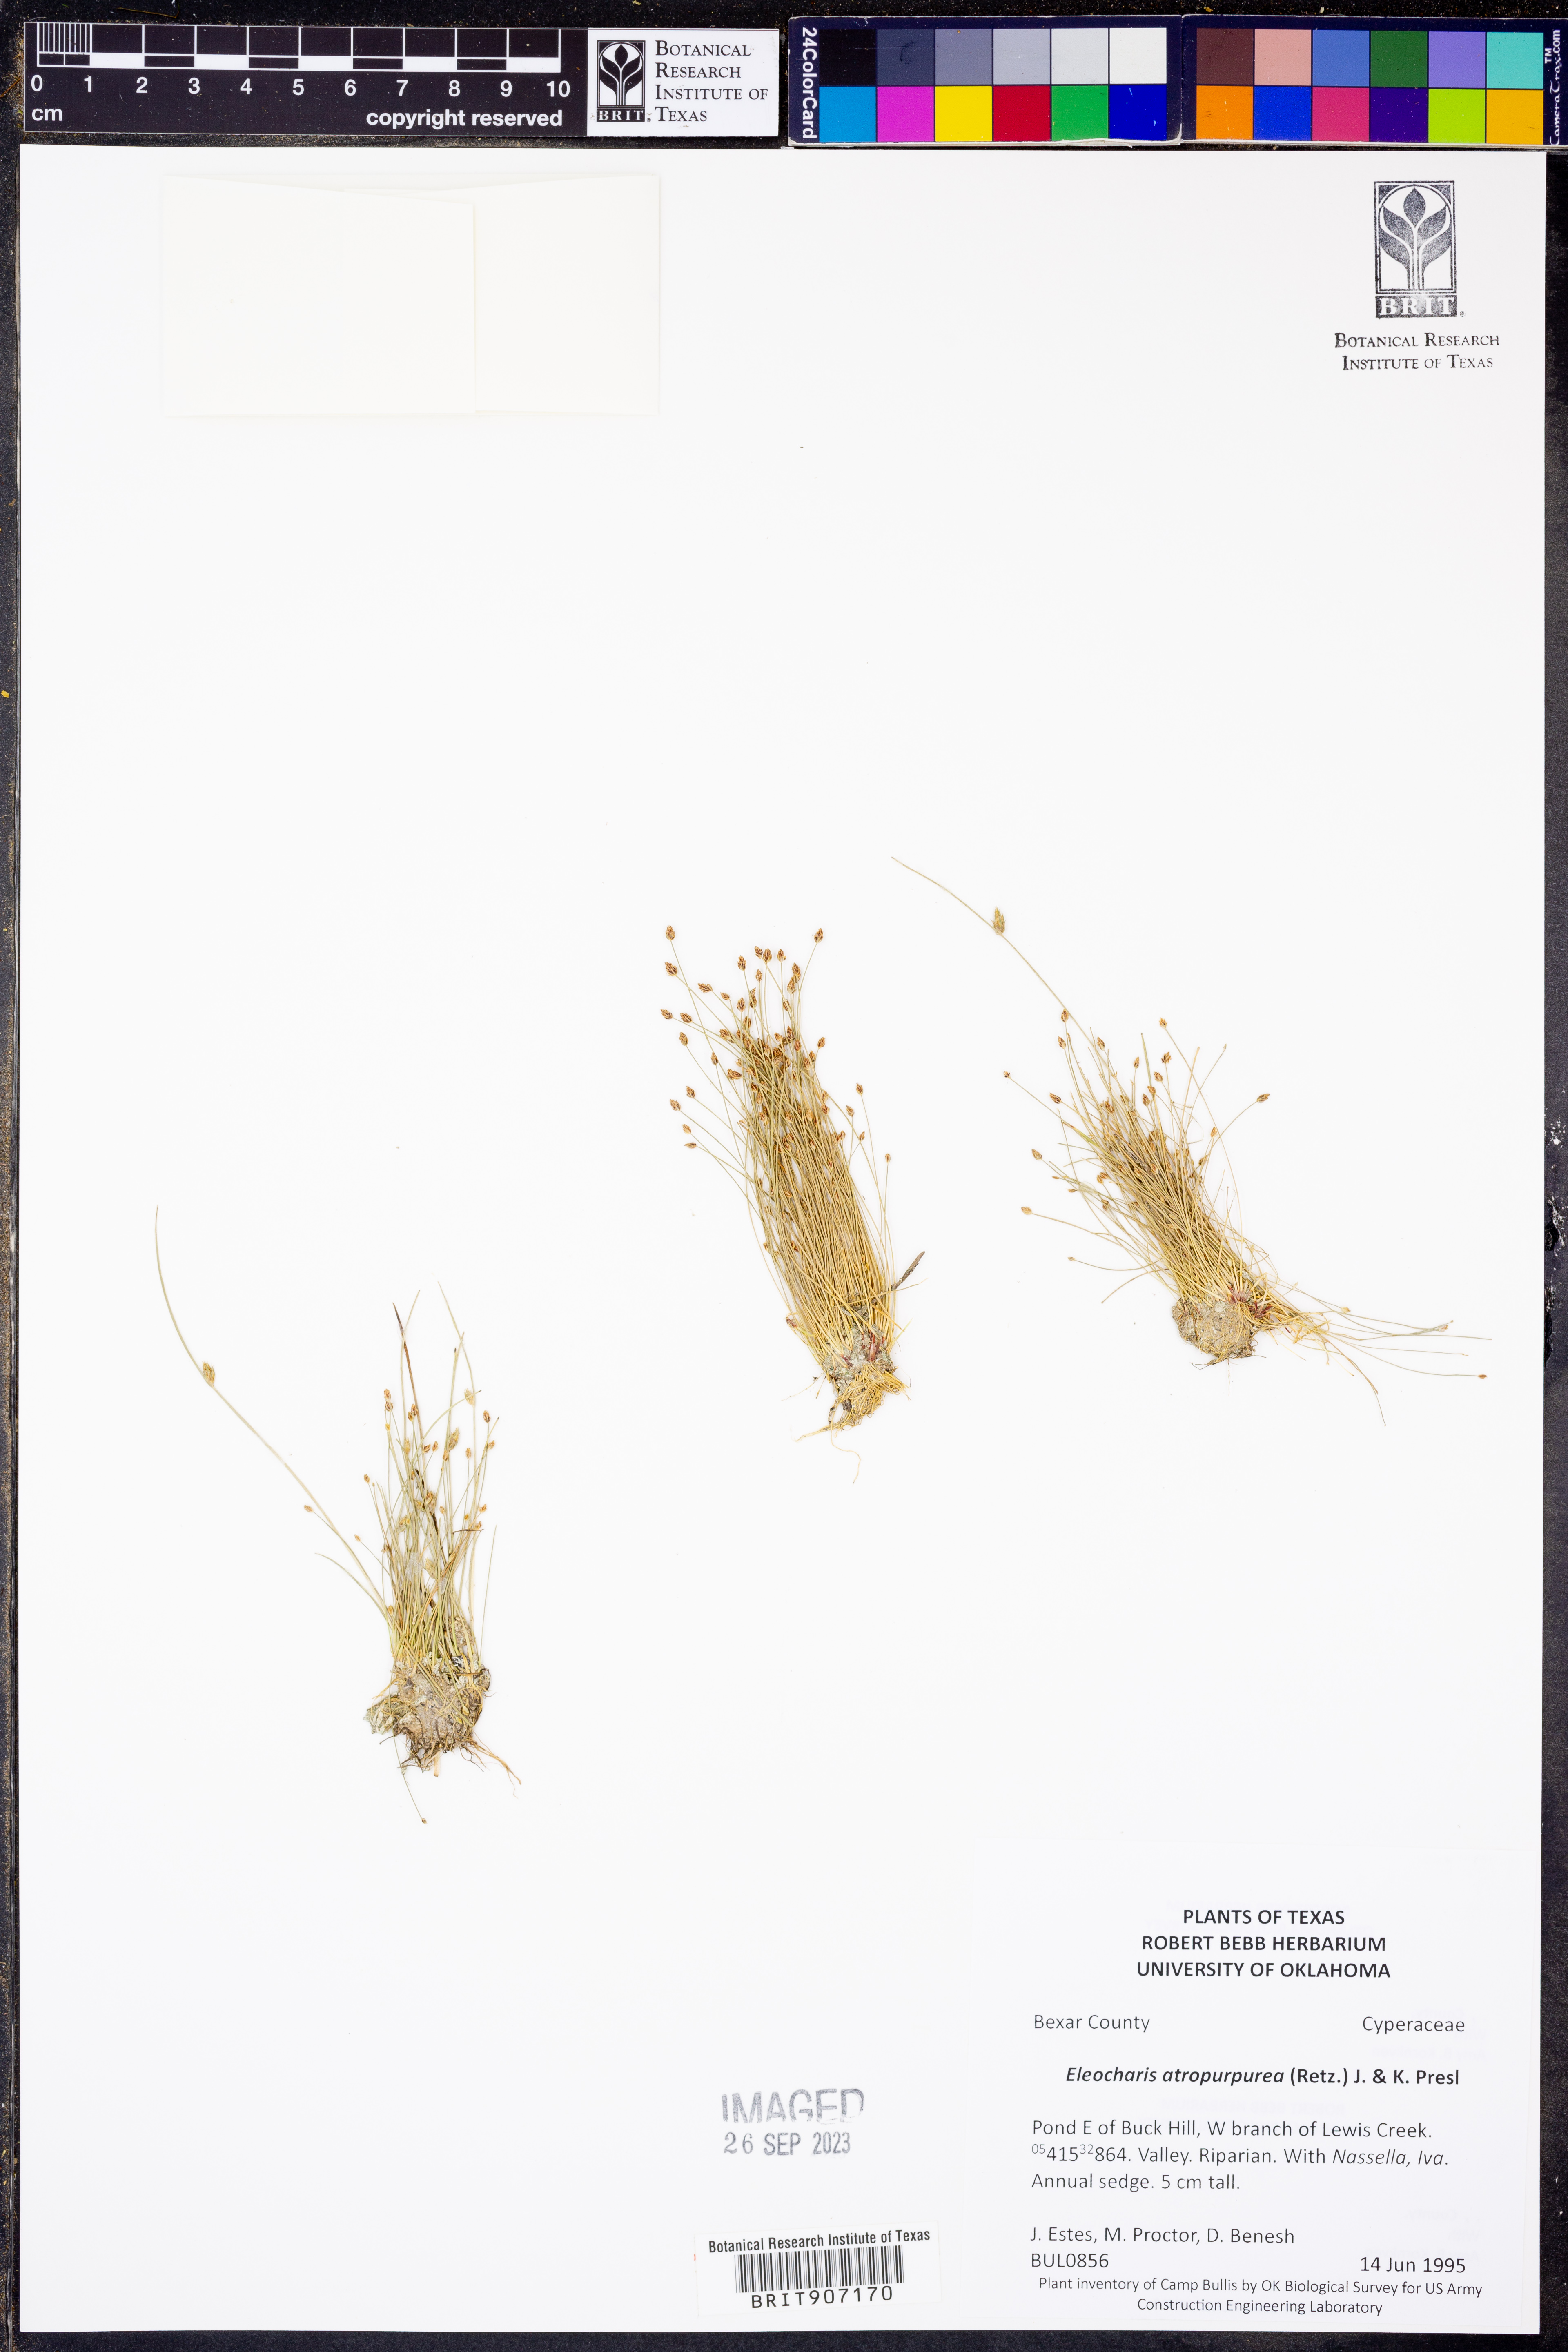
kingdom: Plantae
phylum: Tracheophyta
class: Liliopsida
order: Poales
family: Cyperaceae
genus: Eleocharis
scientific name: Eleocharis atropurpurea
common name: Purple spikerush
